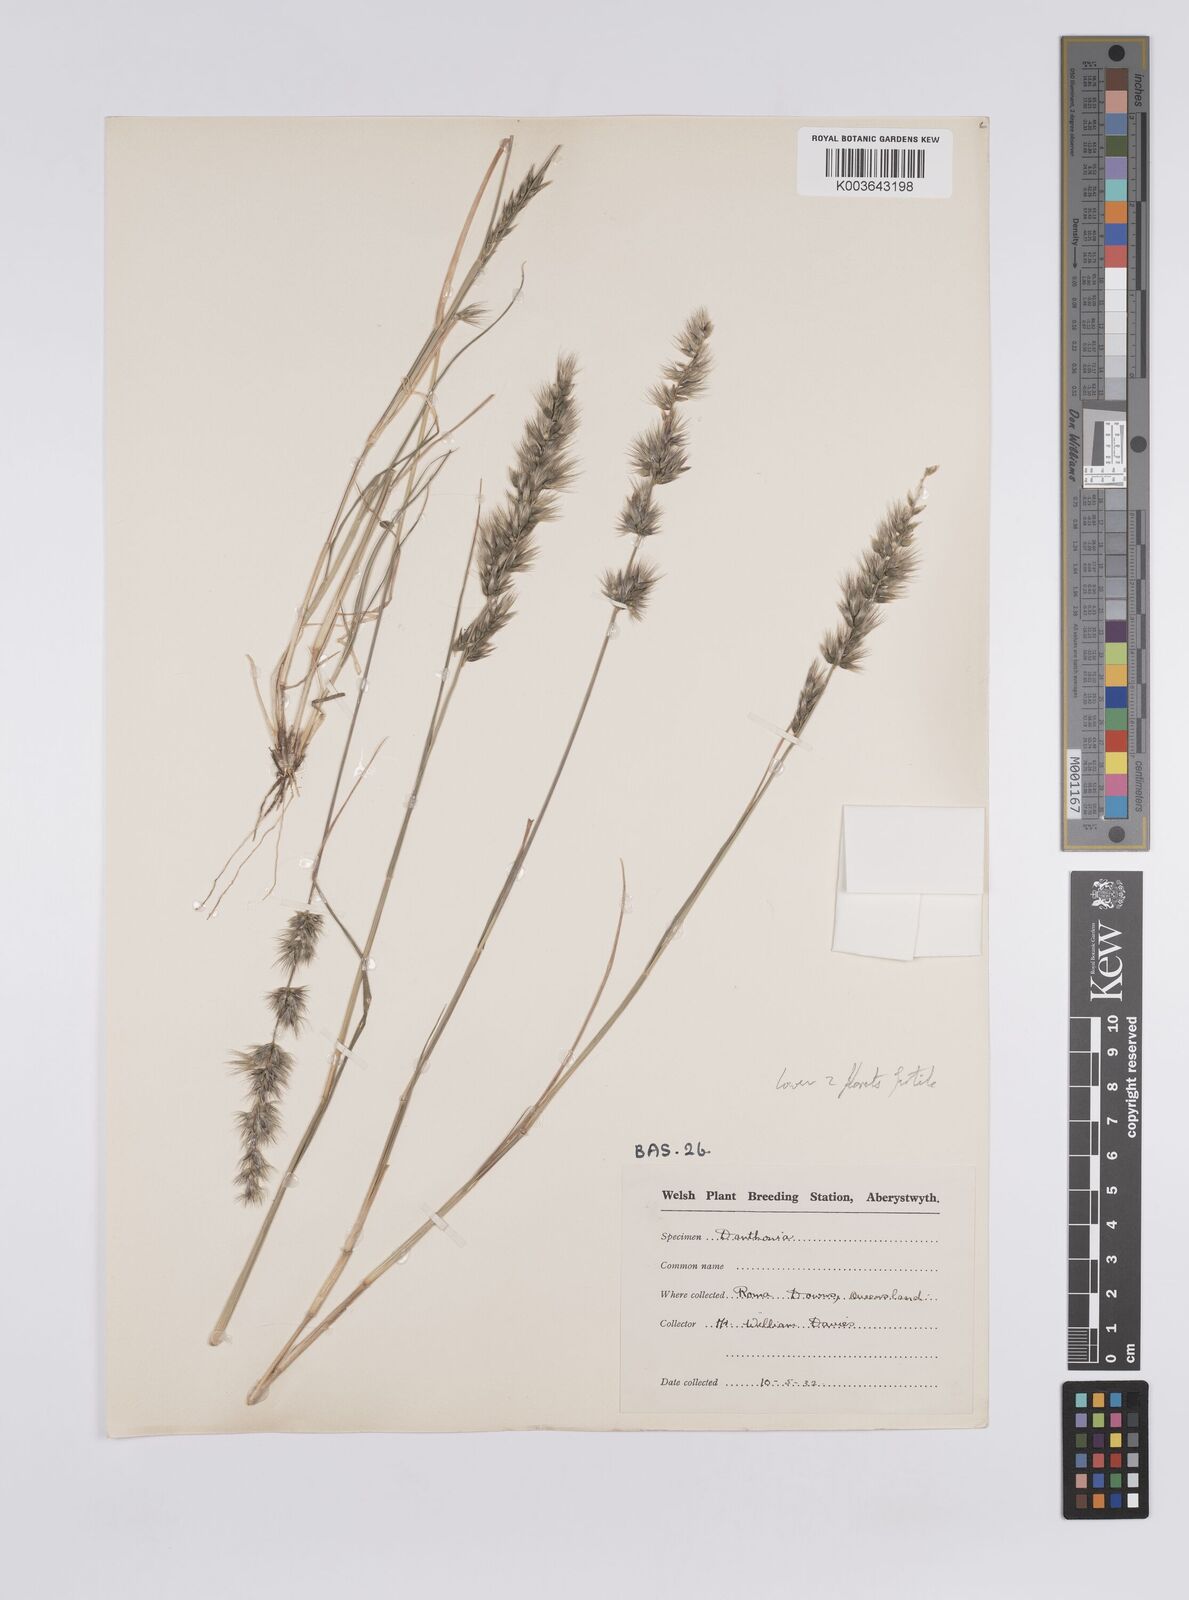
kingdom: Plantae
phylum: Tracheophyta
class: Liliopsida
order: Poales
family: Poaceae
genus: Enneapogon
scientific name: Enneapogon
